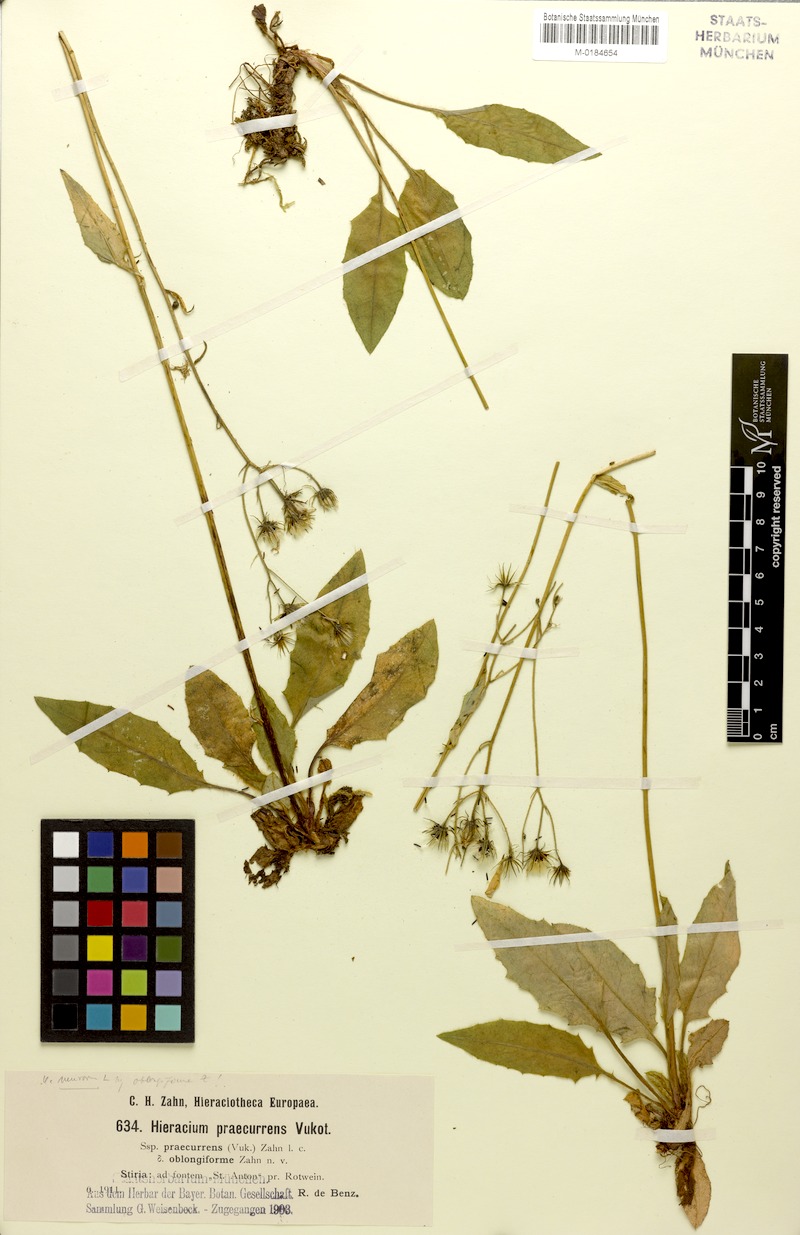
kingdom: Plantae
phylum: Tracheophyta
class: Magnoliopsida
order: Asterales
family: Asteraceae
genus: Hieracium
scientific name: Hieracium rotundatum
